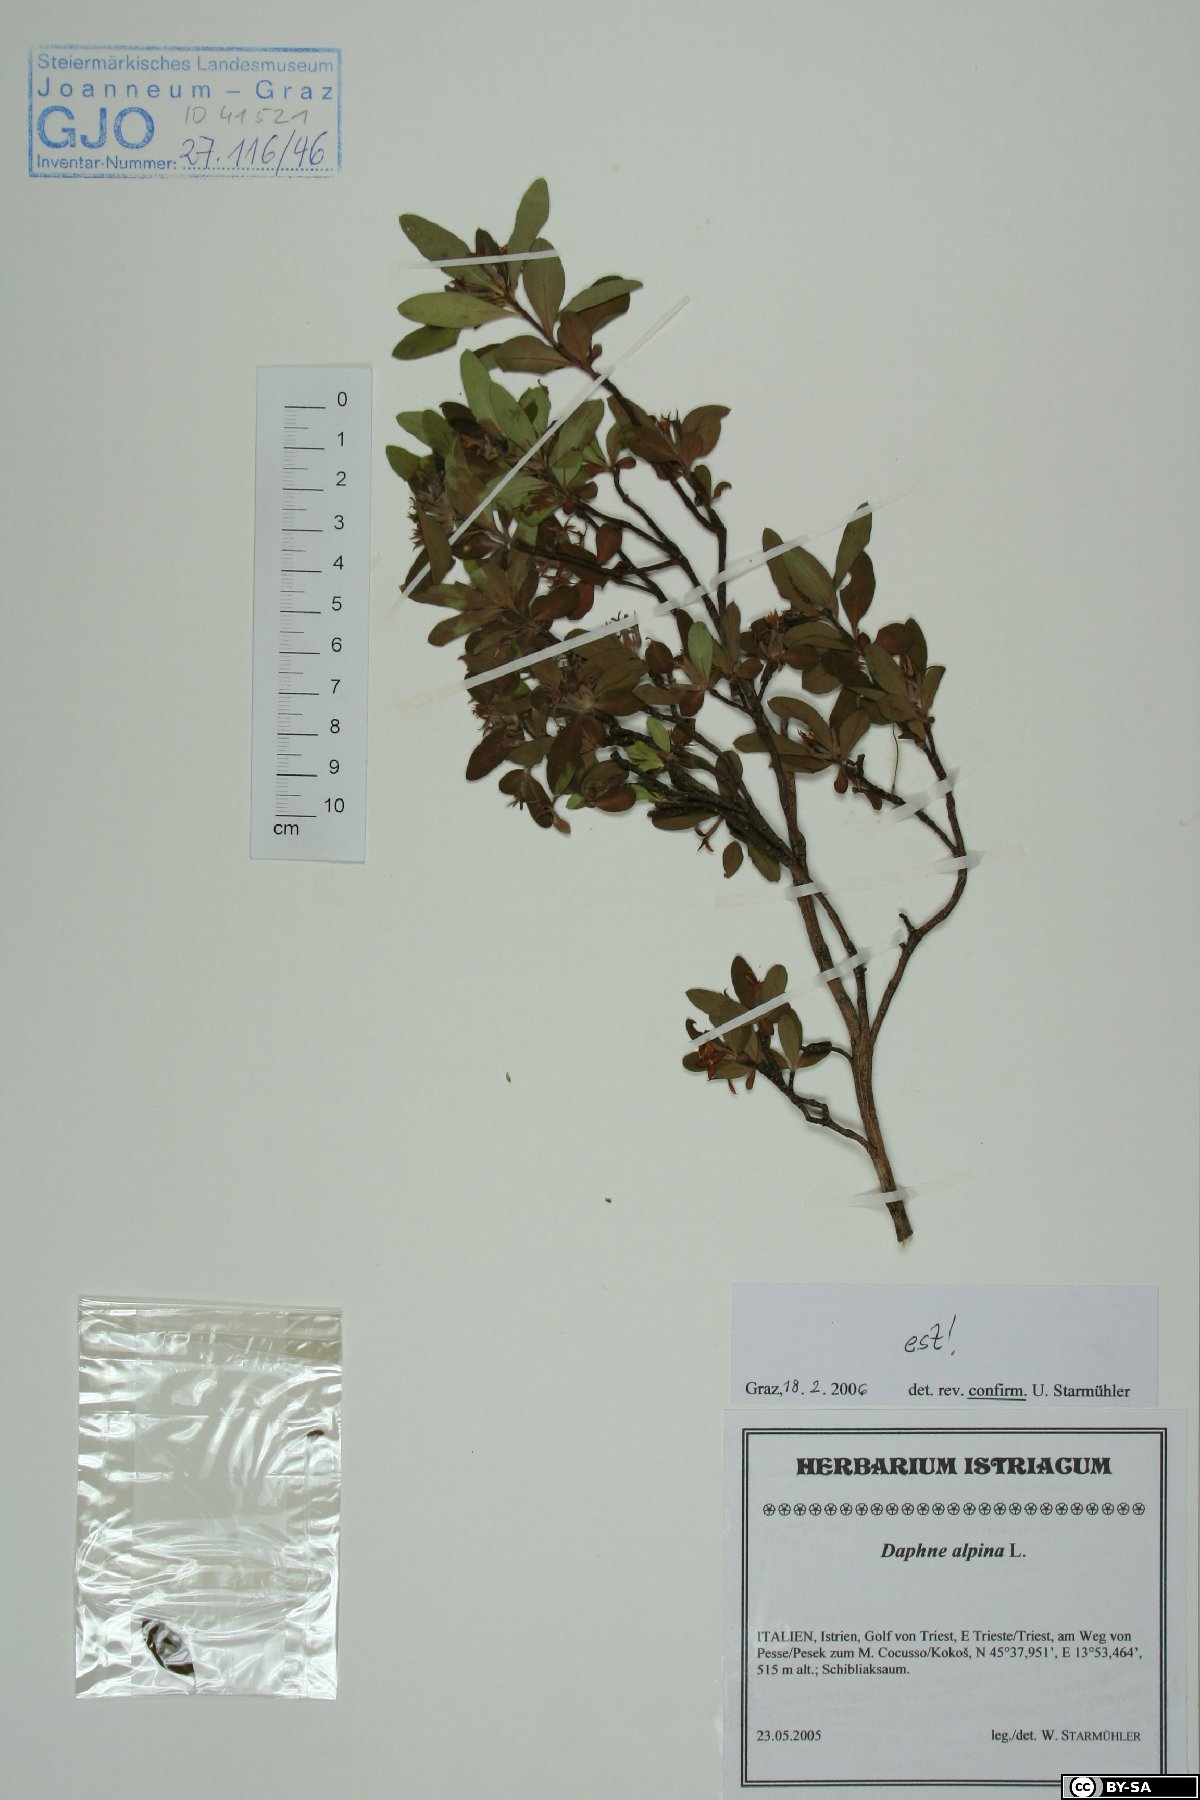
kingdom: Plantae
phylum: Tracheophyta
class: Magnoliopsida
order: Malvales
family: Thymelaeaceae
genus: Daphne
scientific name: Daphne alpina
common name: Alpine daphne
